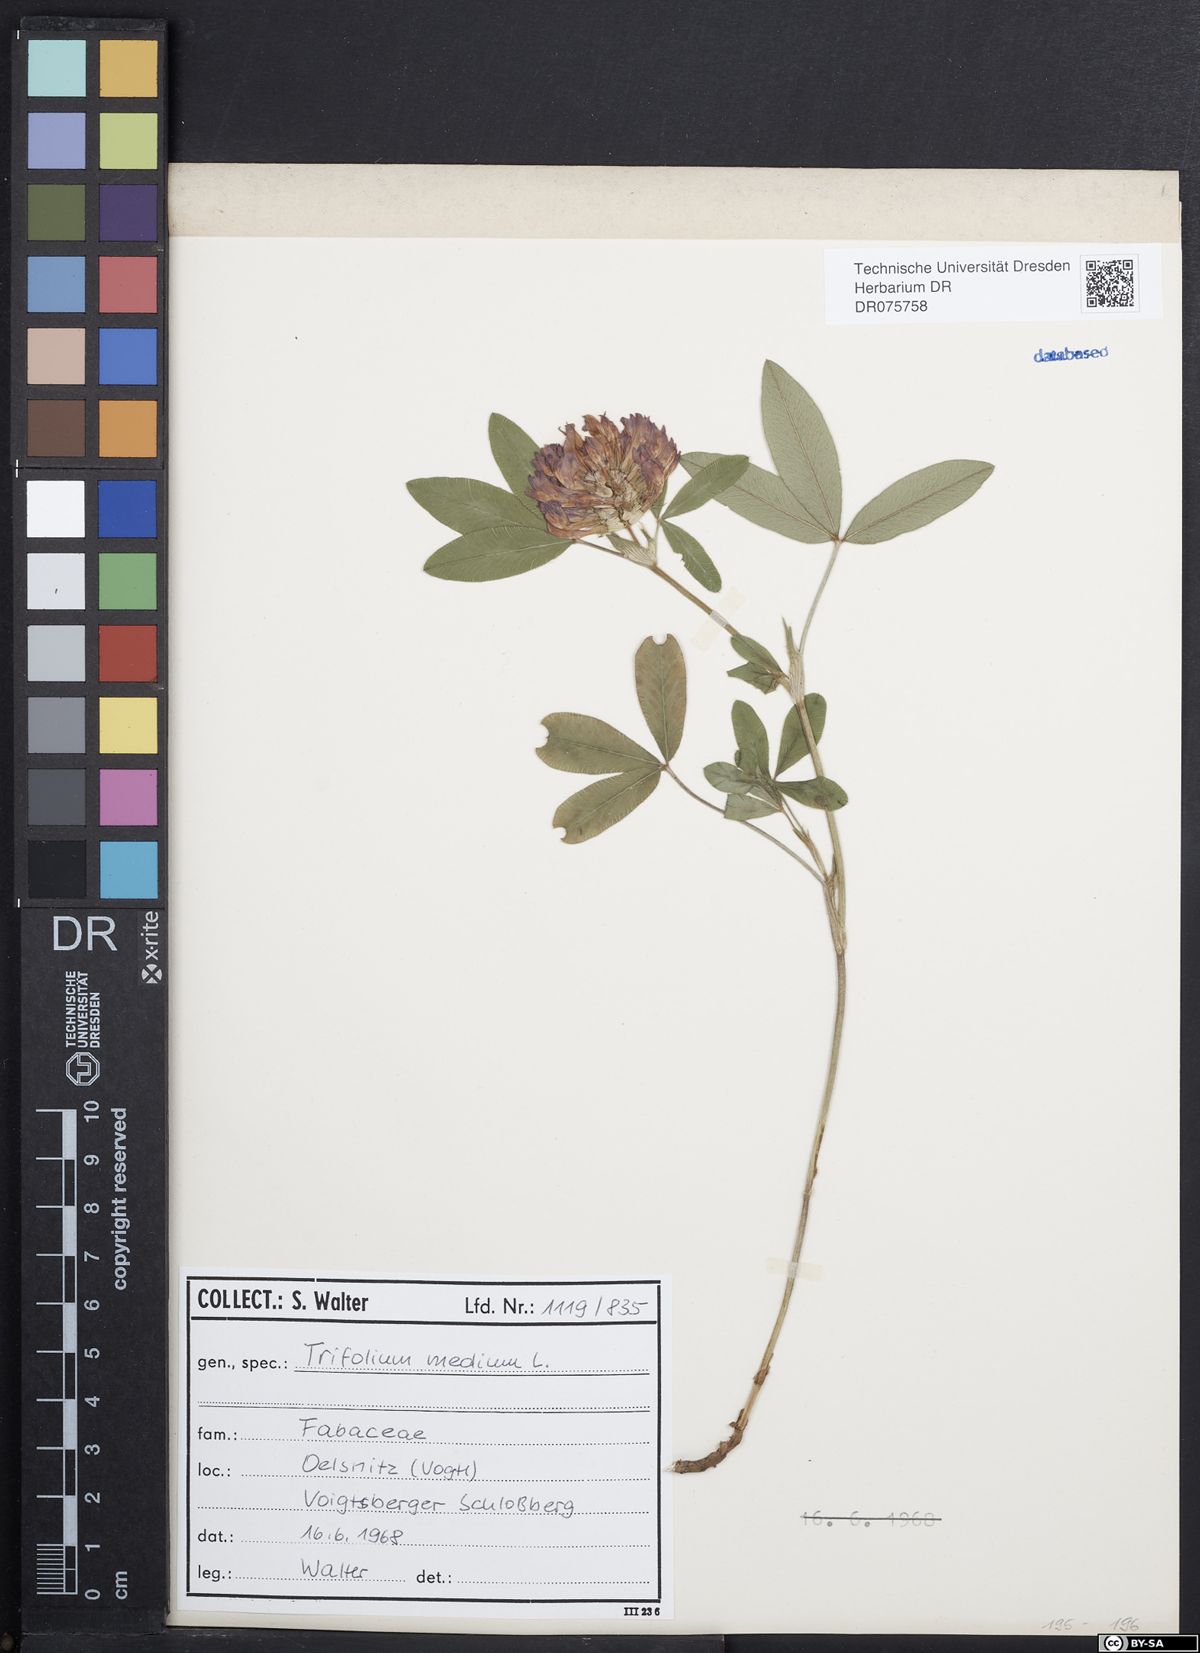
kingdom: Plantae
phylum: Tracheophyta
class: Magnoliopsida
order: Fabales
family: Fabaceae
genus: Trifolium
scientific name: Trifolium medium
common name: Zigzag clover
